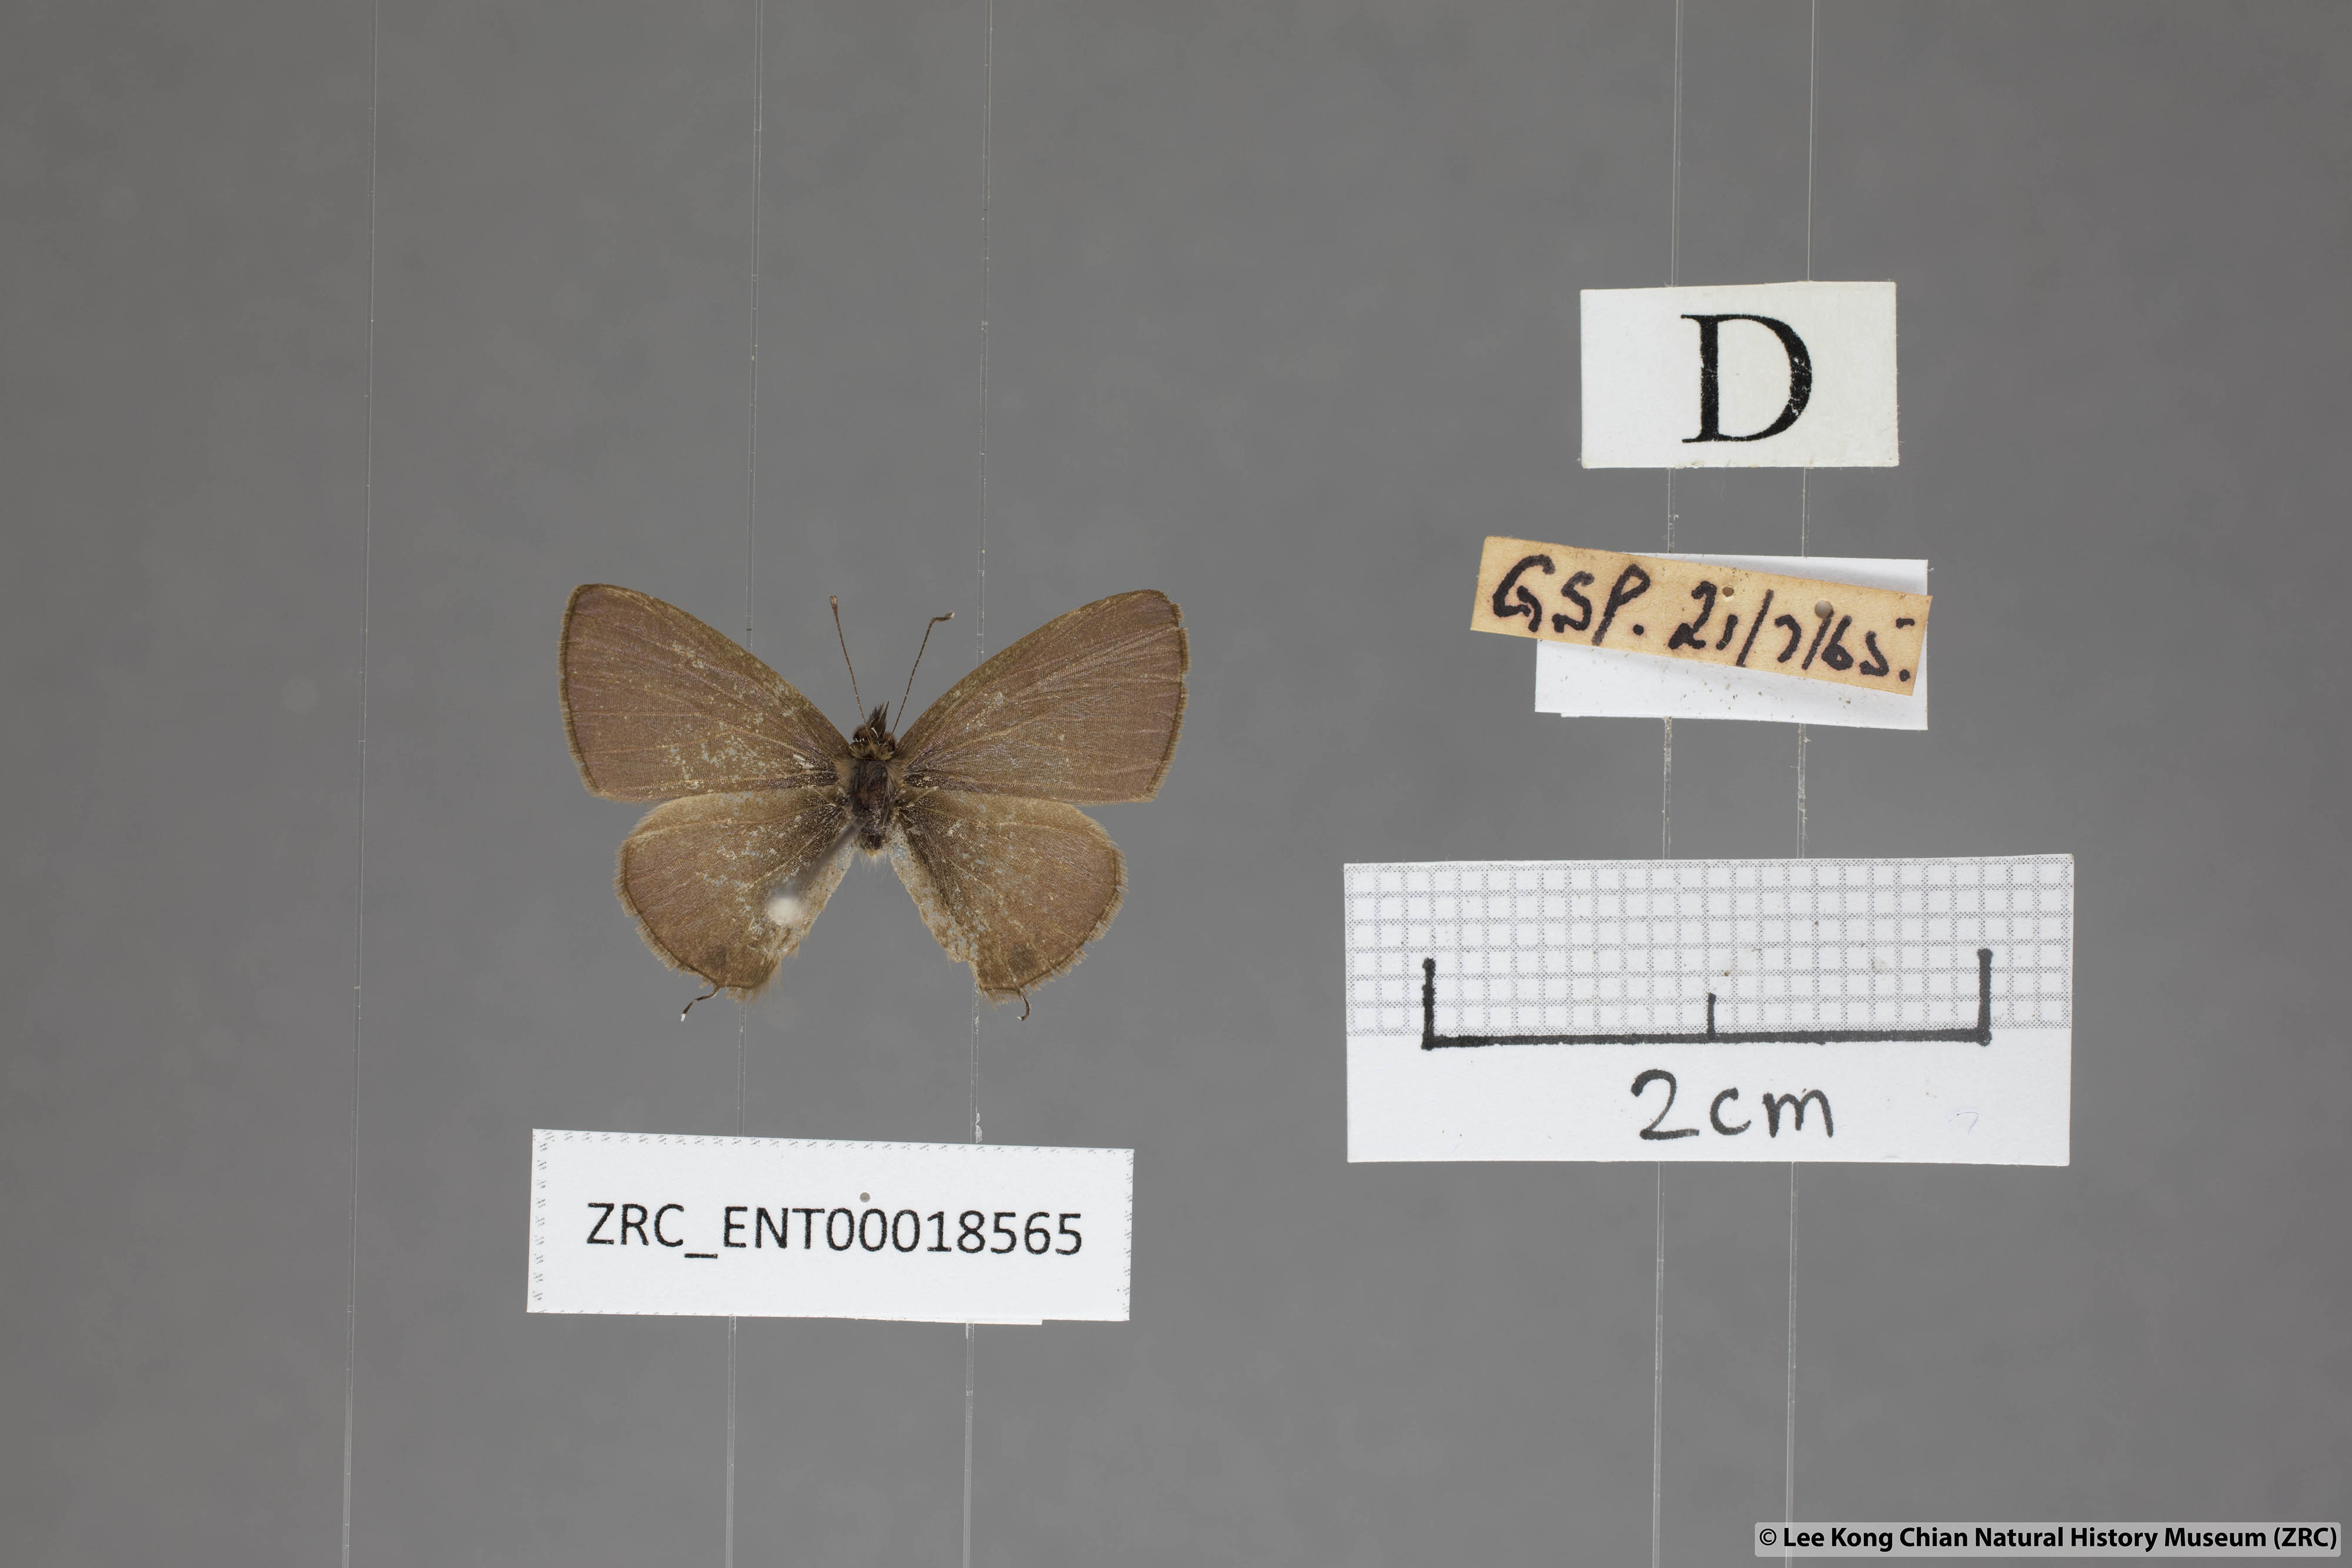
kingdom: Animalia
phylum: Arthropoda
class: Insecta
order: Lepidoptera
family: Lycaenidae
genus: Prosotas
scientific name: Prosotas bhutea
